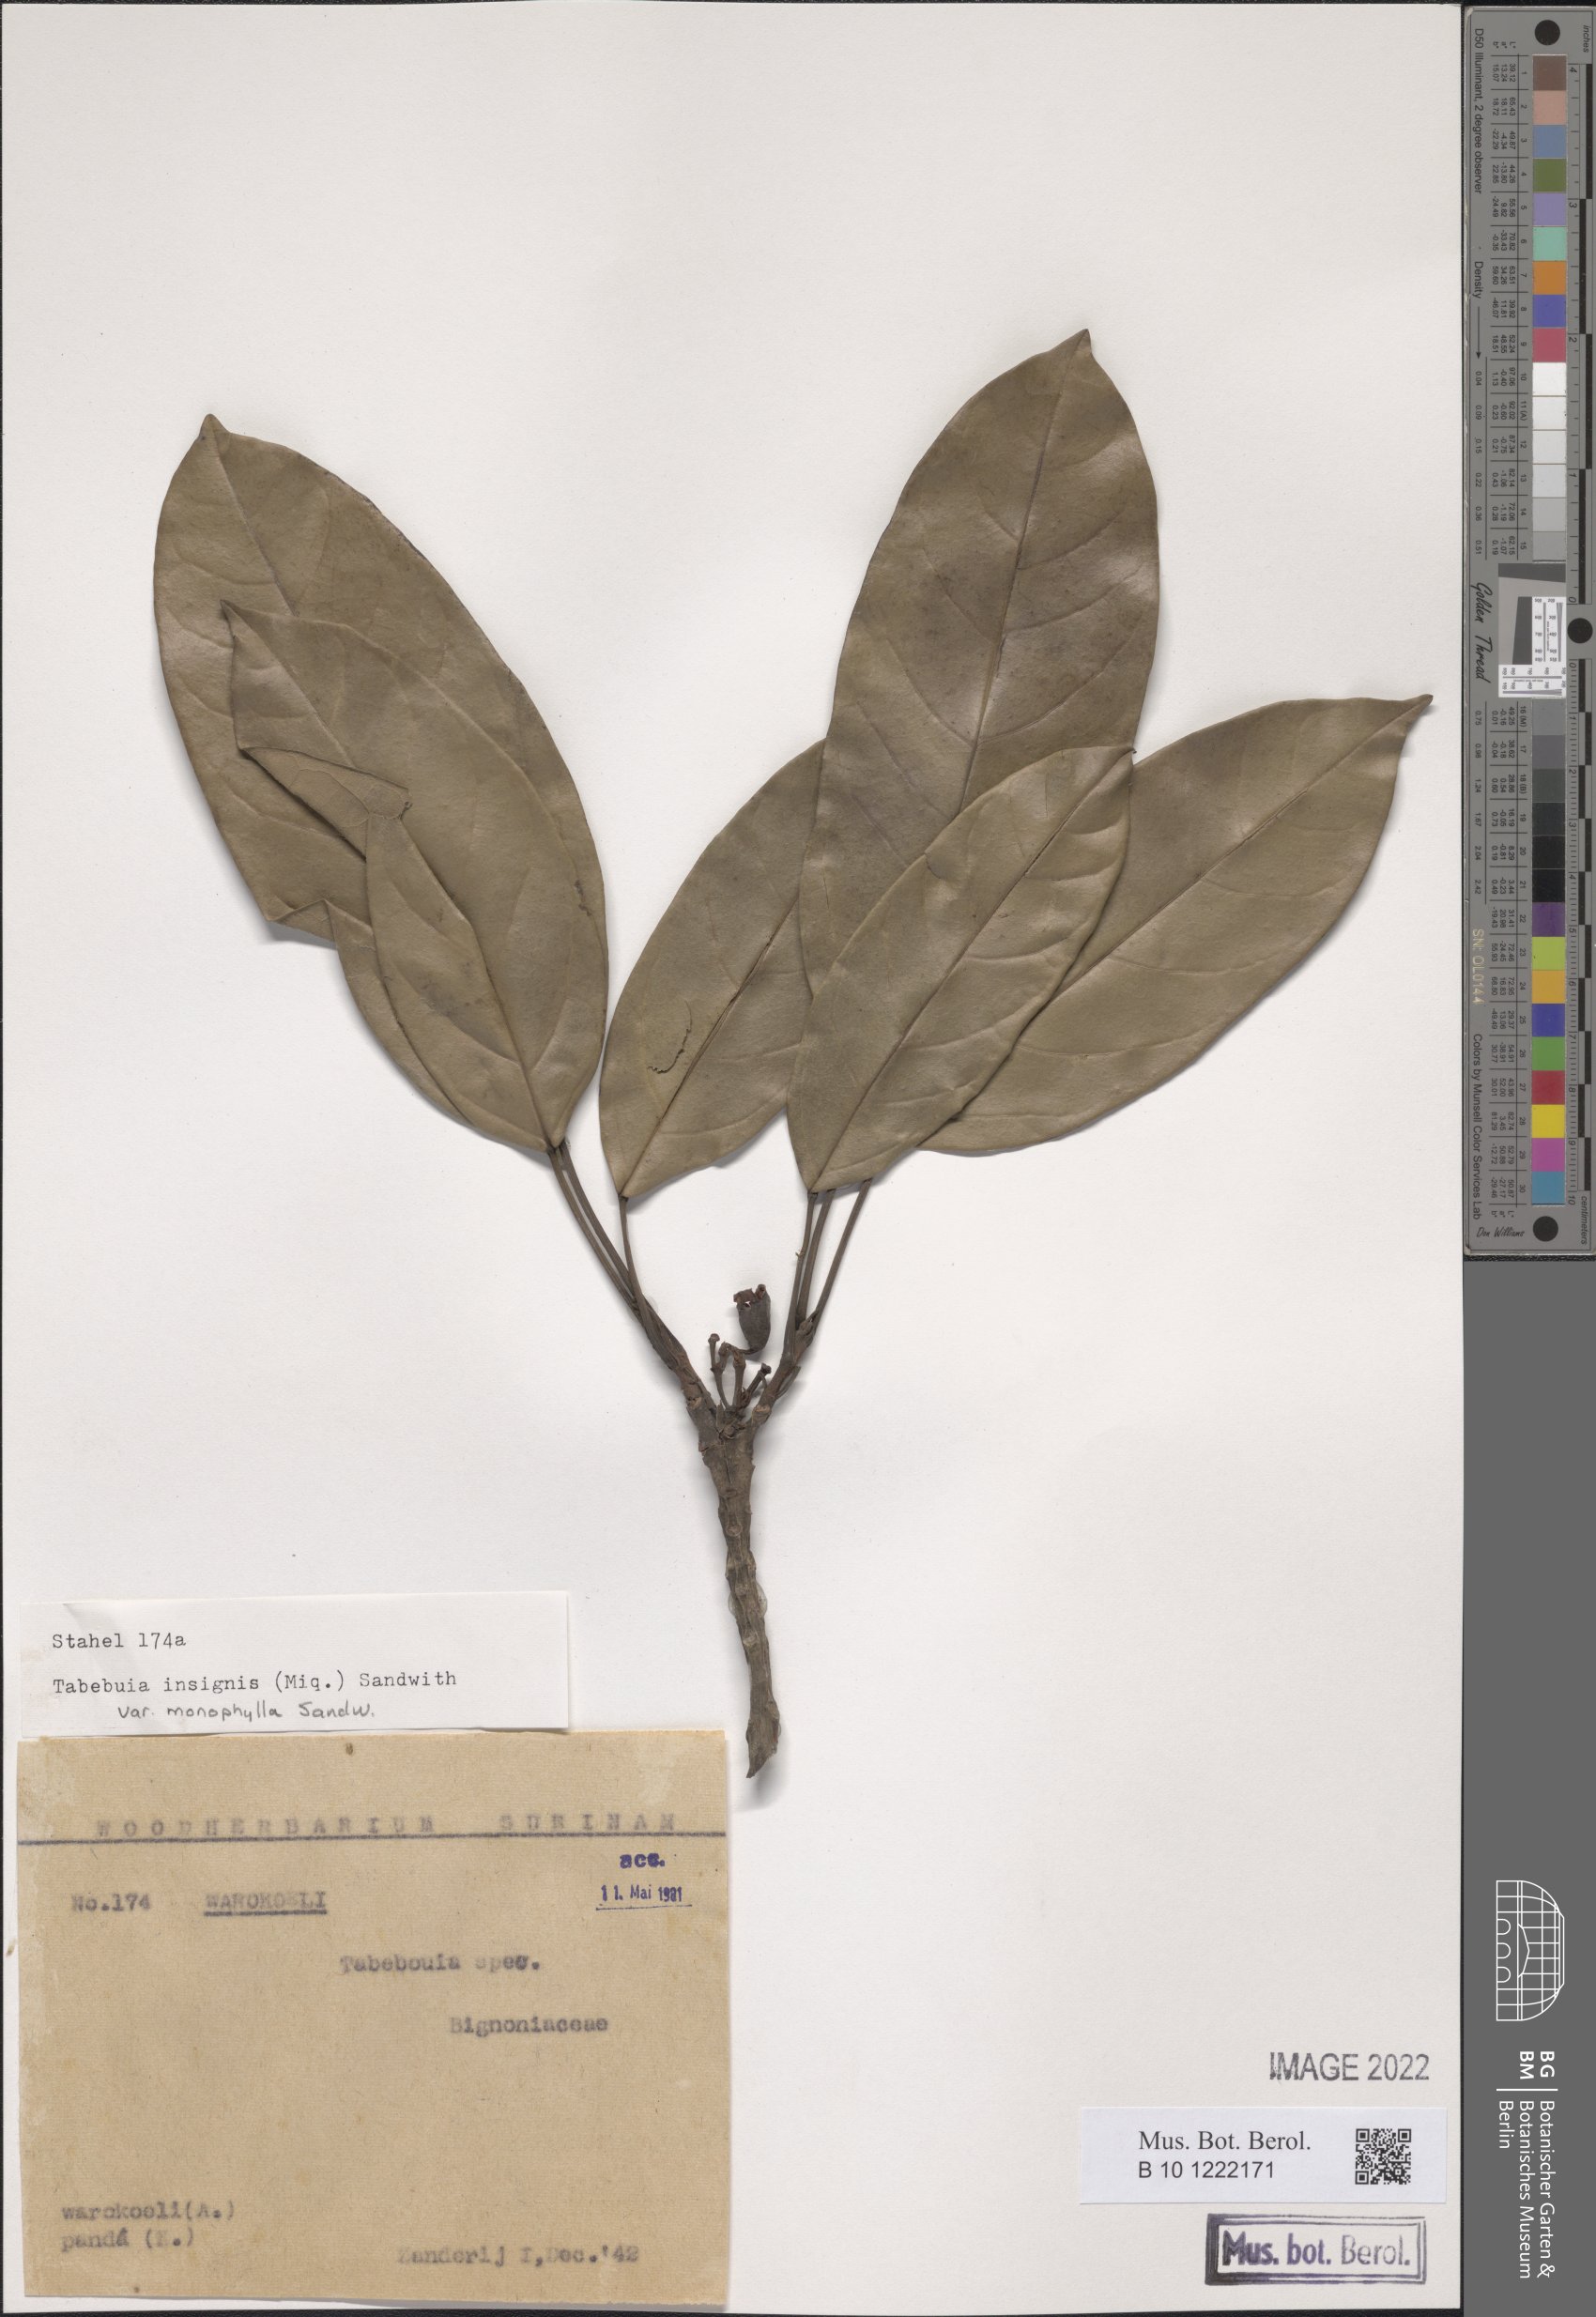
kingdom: Plantae
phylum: Tracheophyta
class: Magnoliopsida
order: Lamiales
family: Bignoniaceae
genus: Tabebuia
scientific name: Tabebuia insignis
